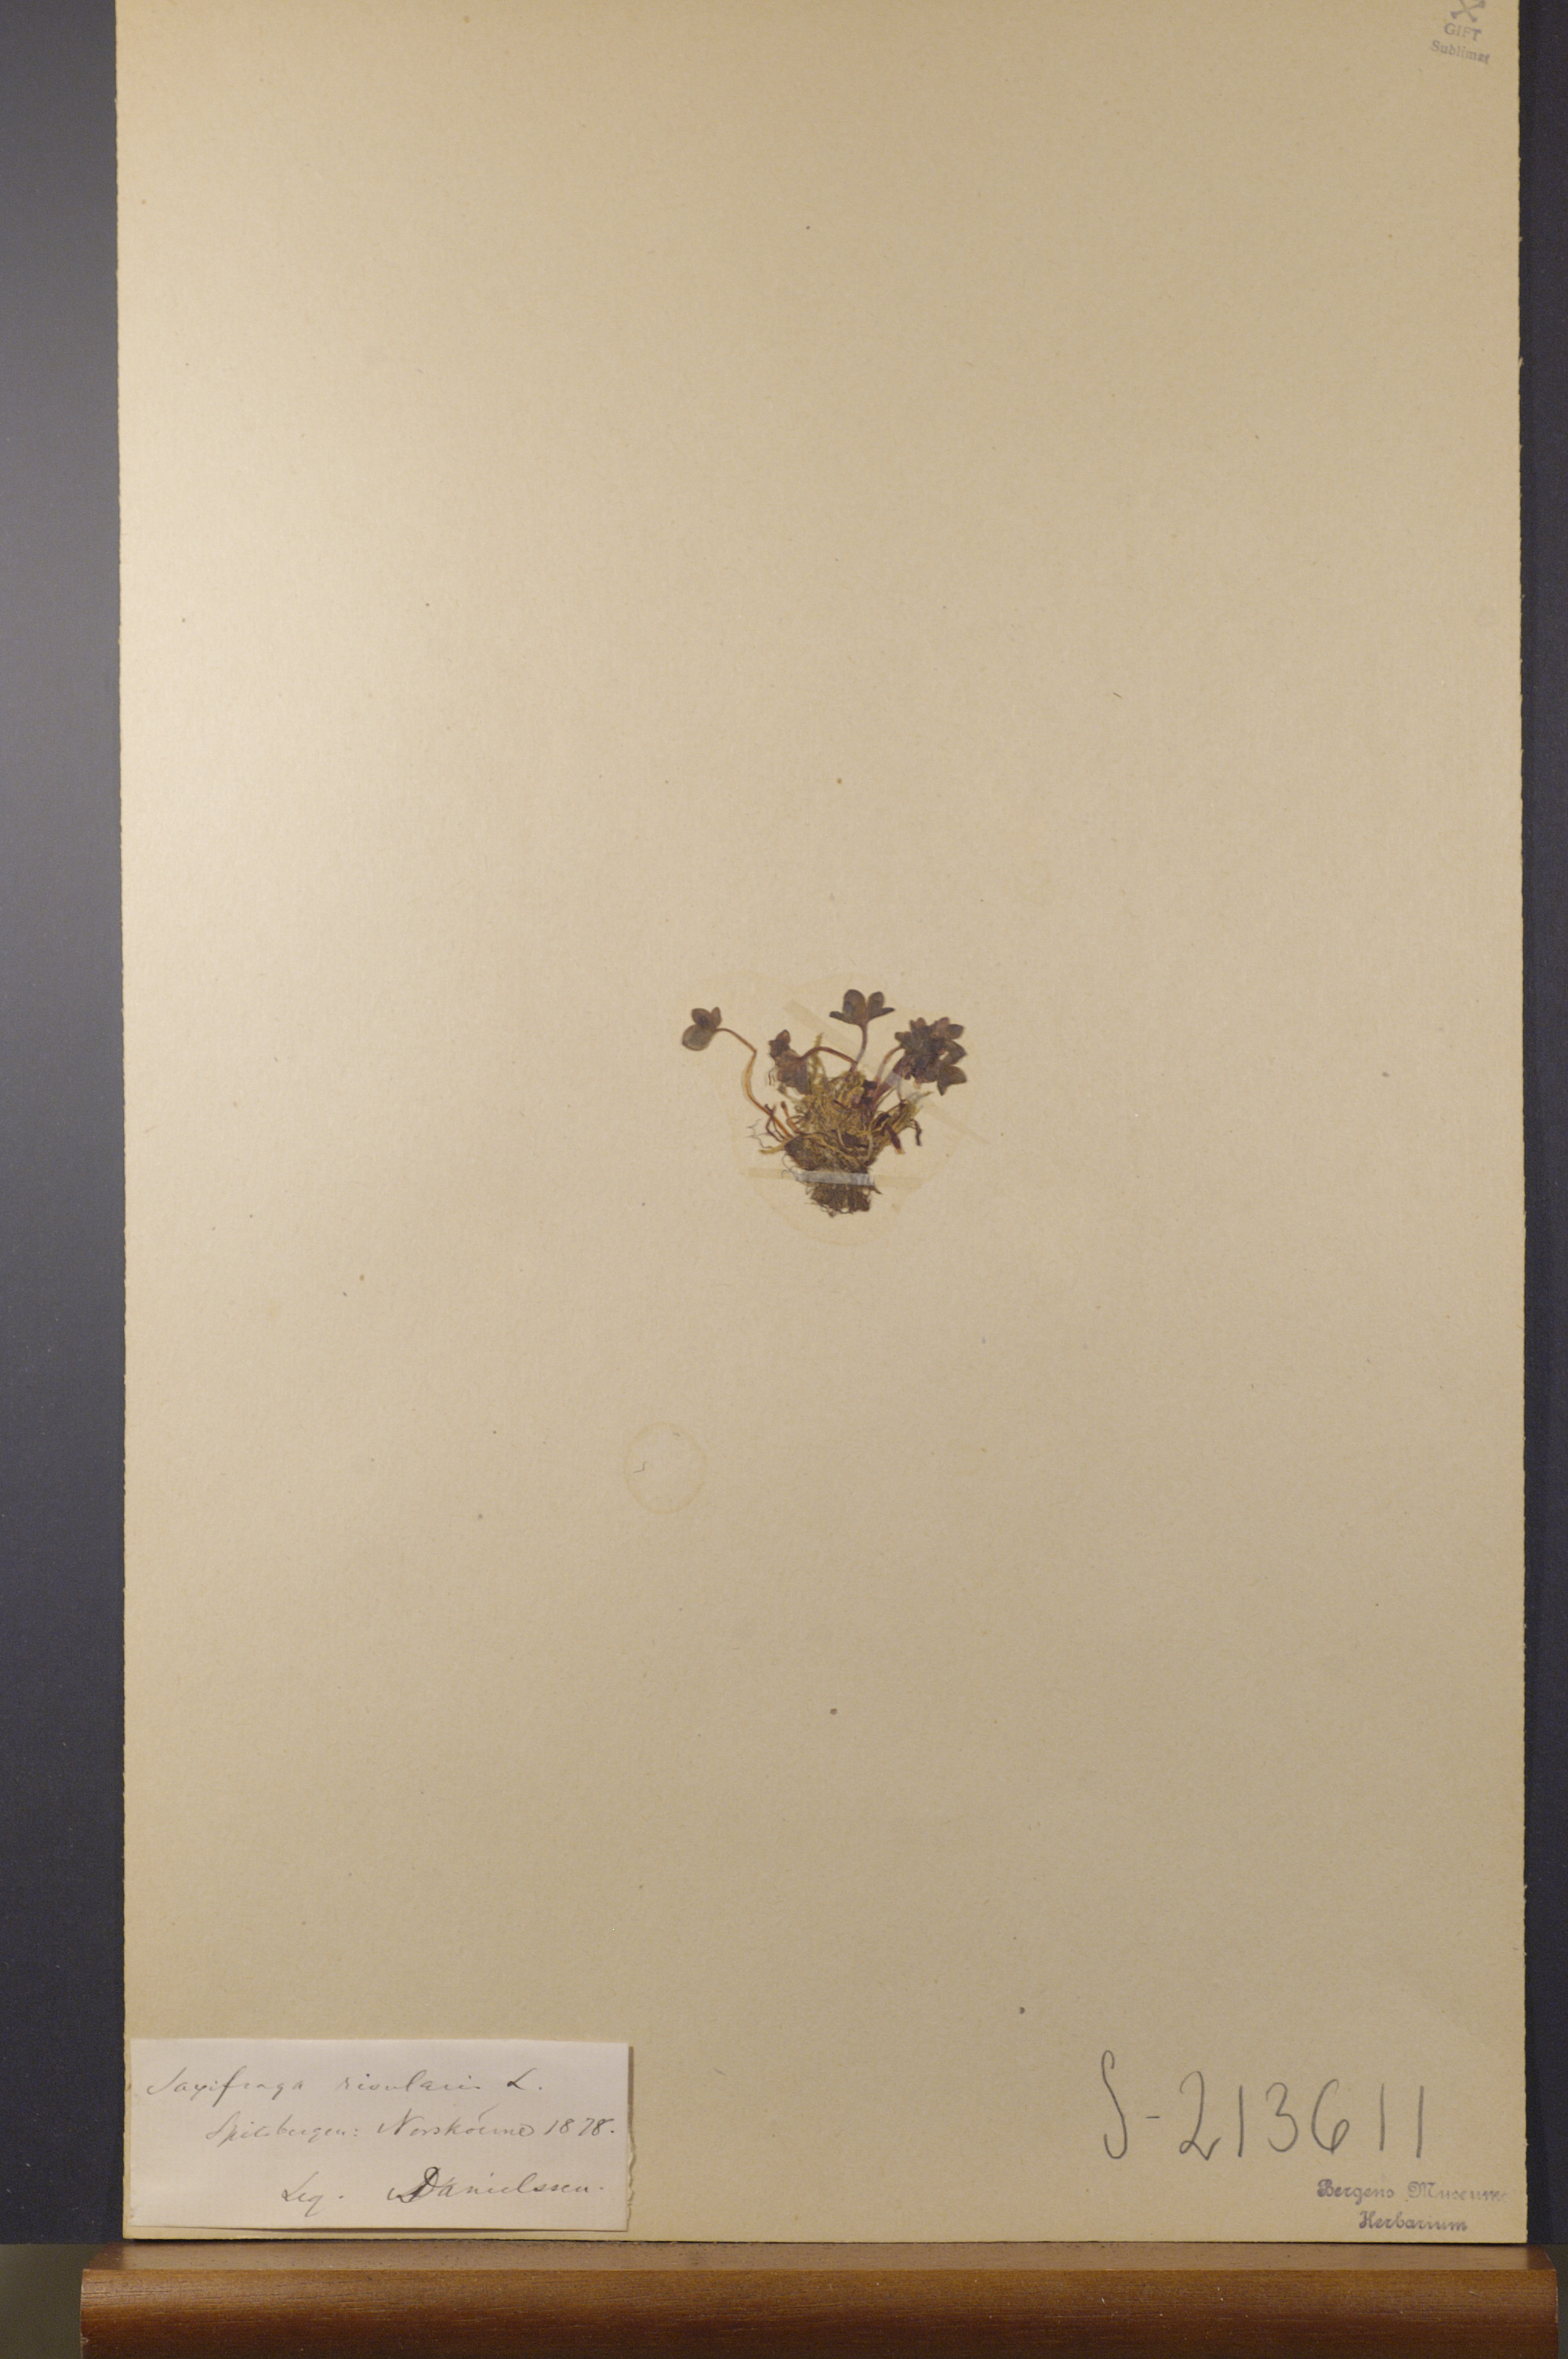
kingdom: Plantae
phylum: Tracheophyta
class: Magnoliopsida
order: Saxifragales
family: Saxifragaceae
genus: Saxifraga
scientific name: Saxifraga rivularis
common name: Highland saxifrage
